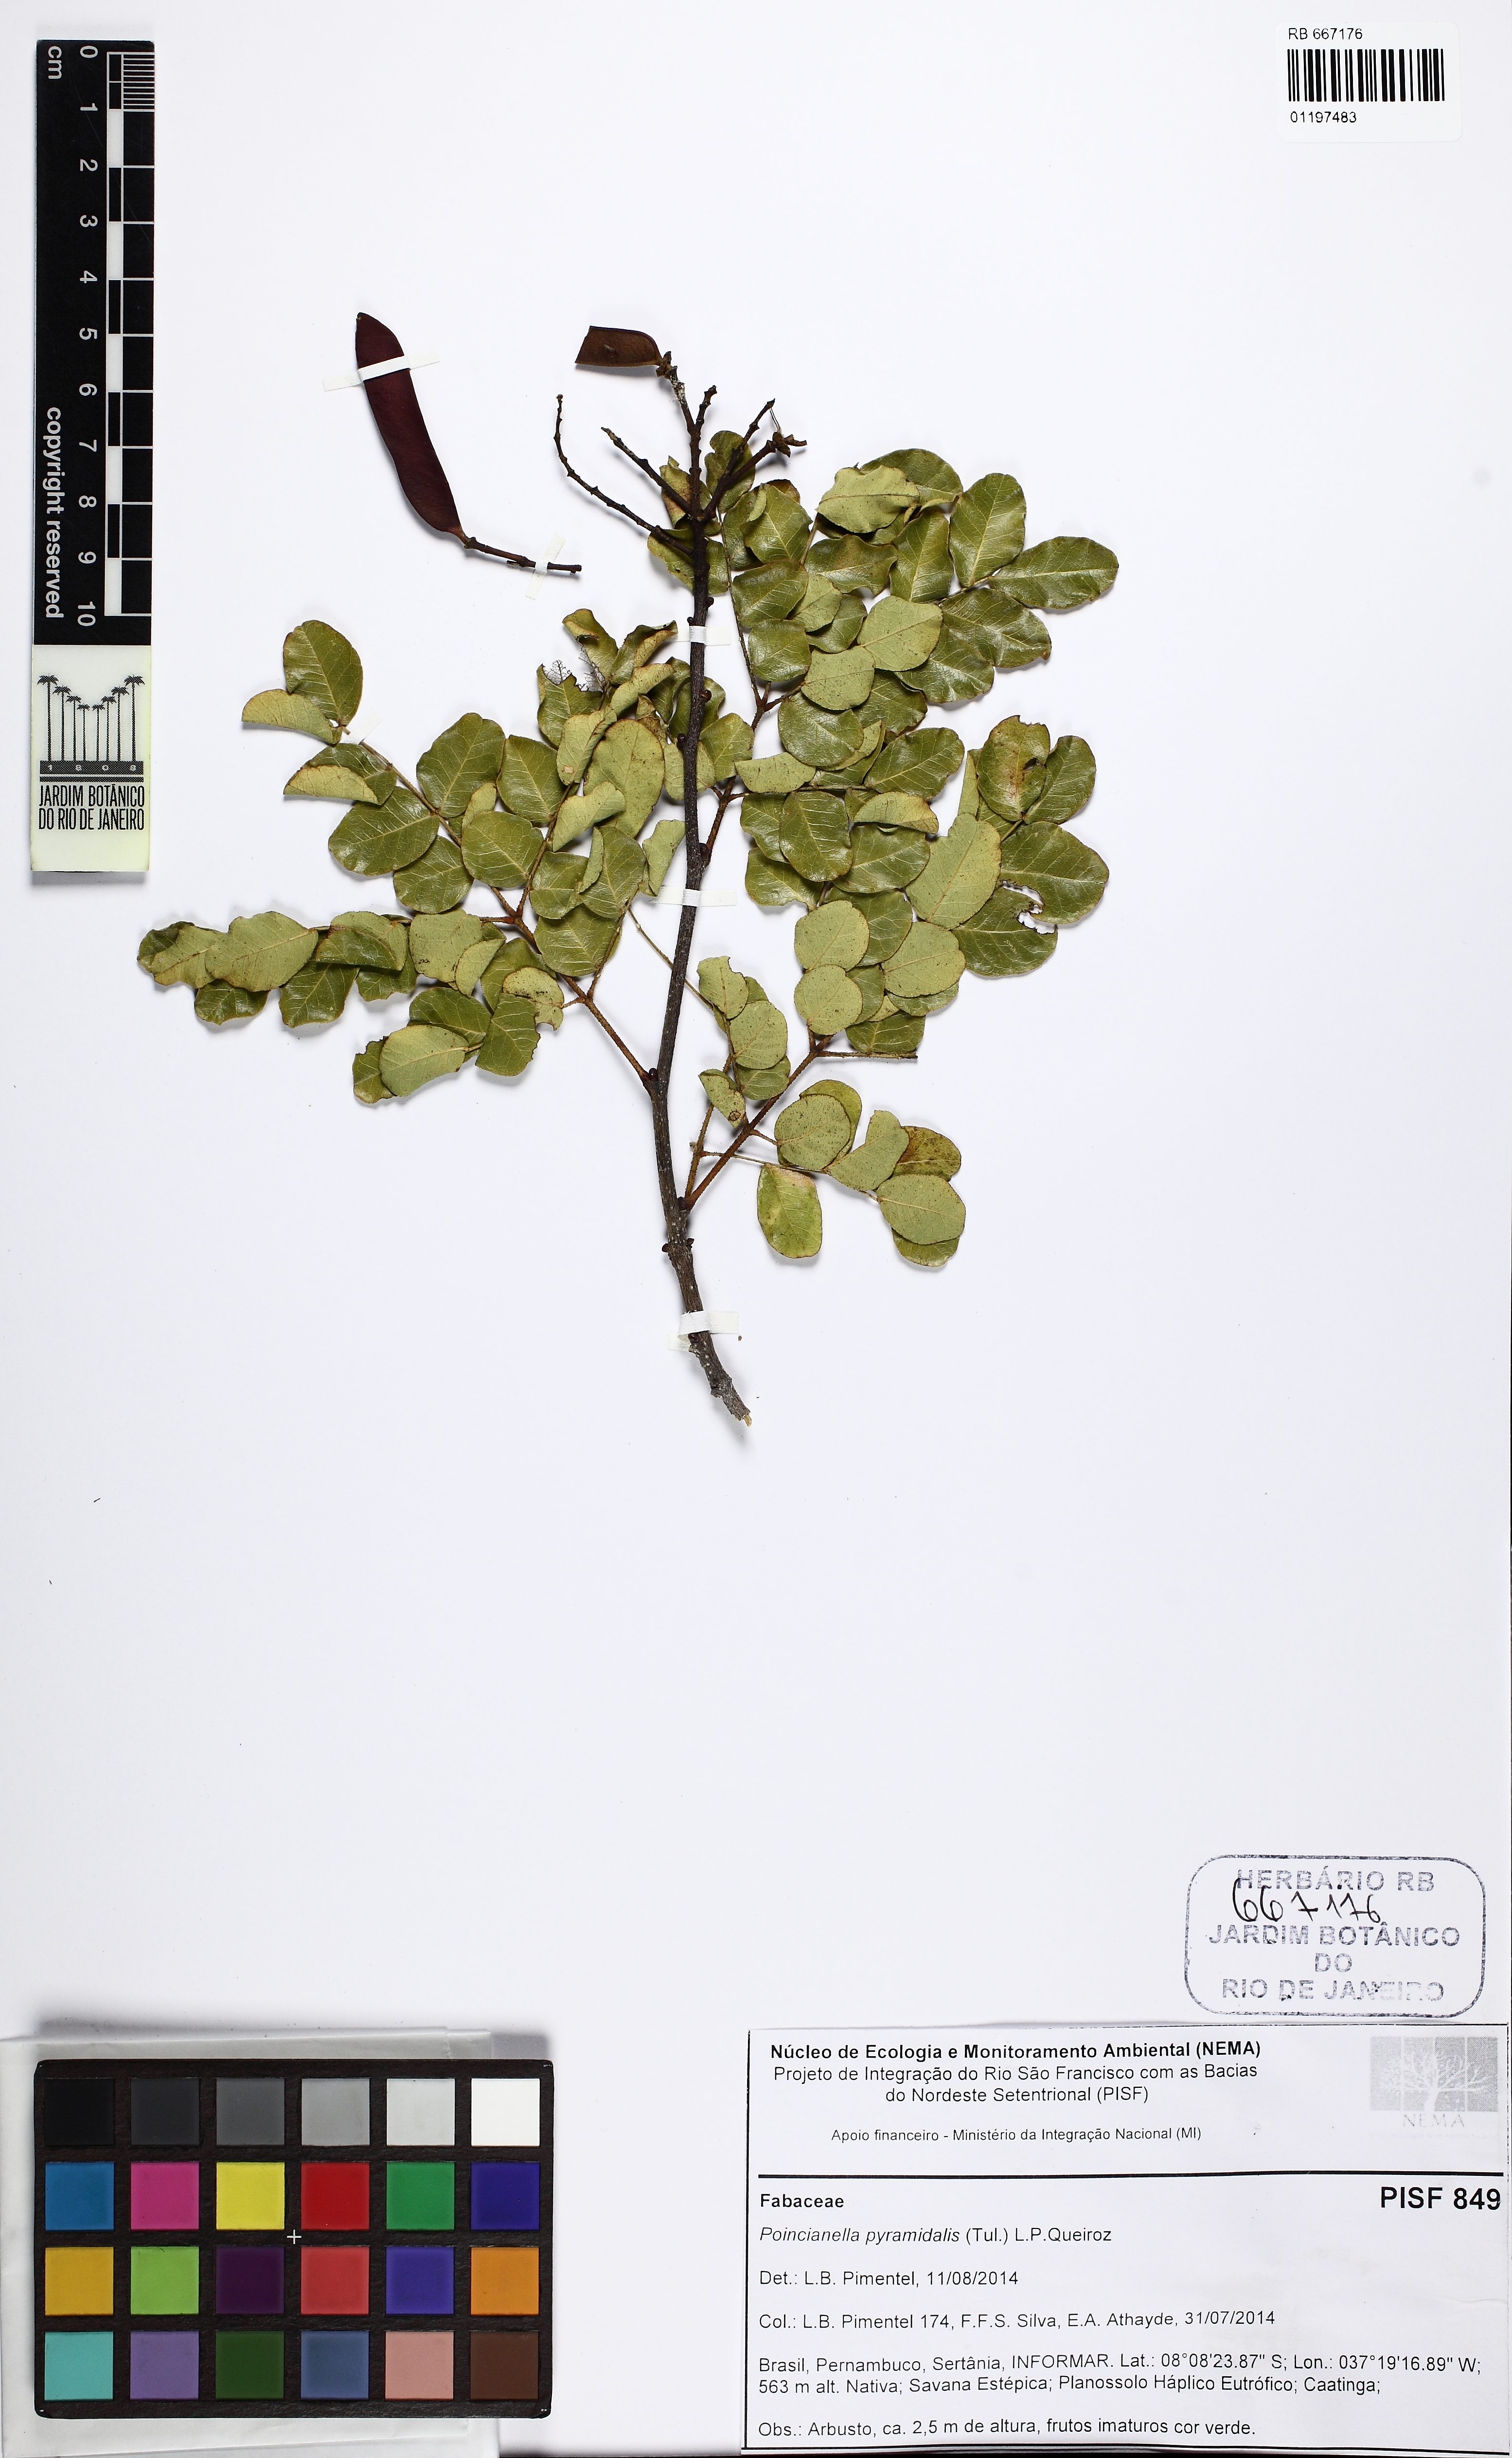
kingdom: Plantae
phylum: Tracheophyta
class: Magnoliopsida
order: Fabales
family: Fabaceae
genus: Cenostigma
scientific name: Cenostigma pyramidale
